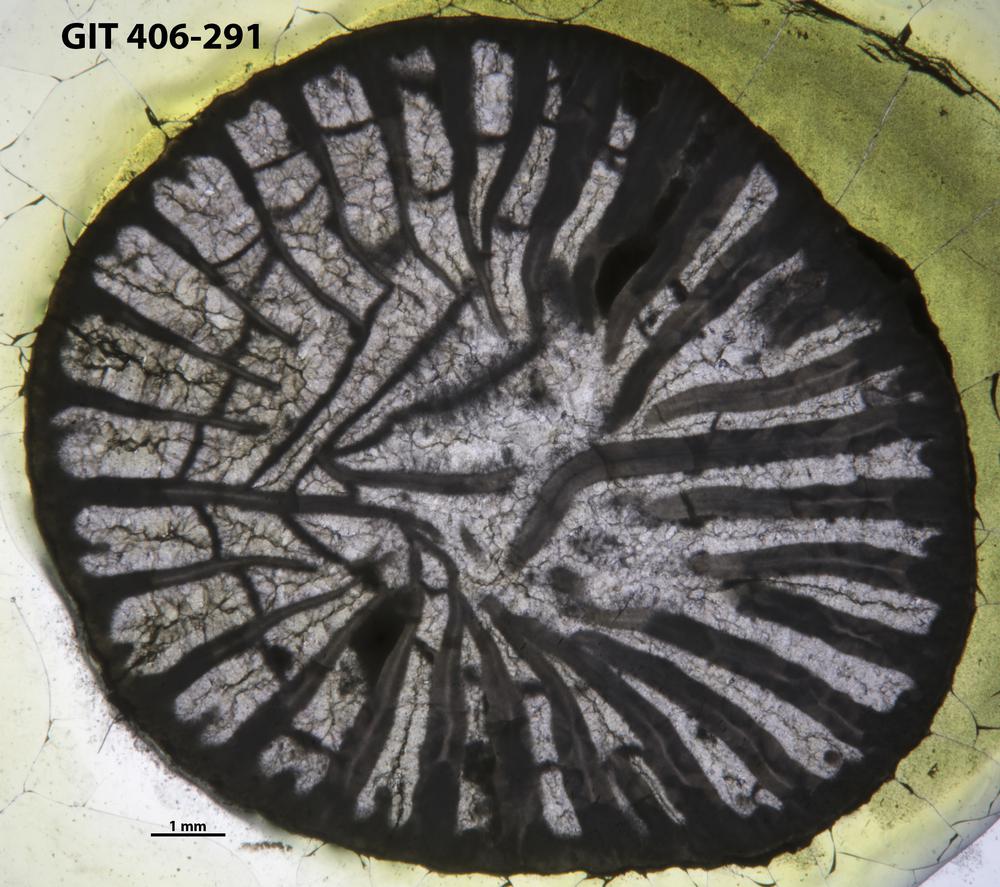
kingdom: Animalia
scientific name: Animalia
